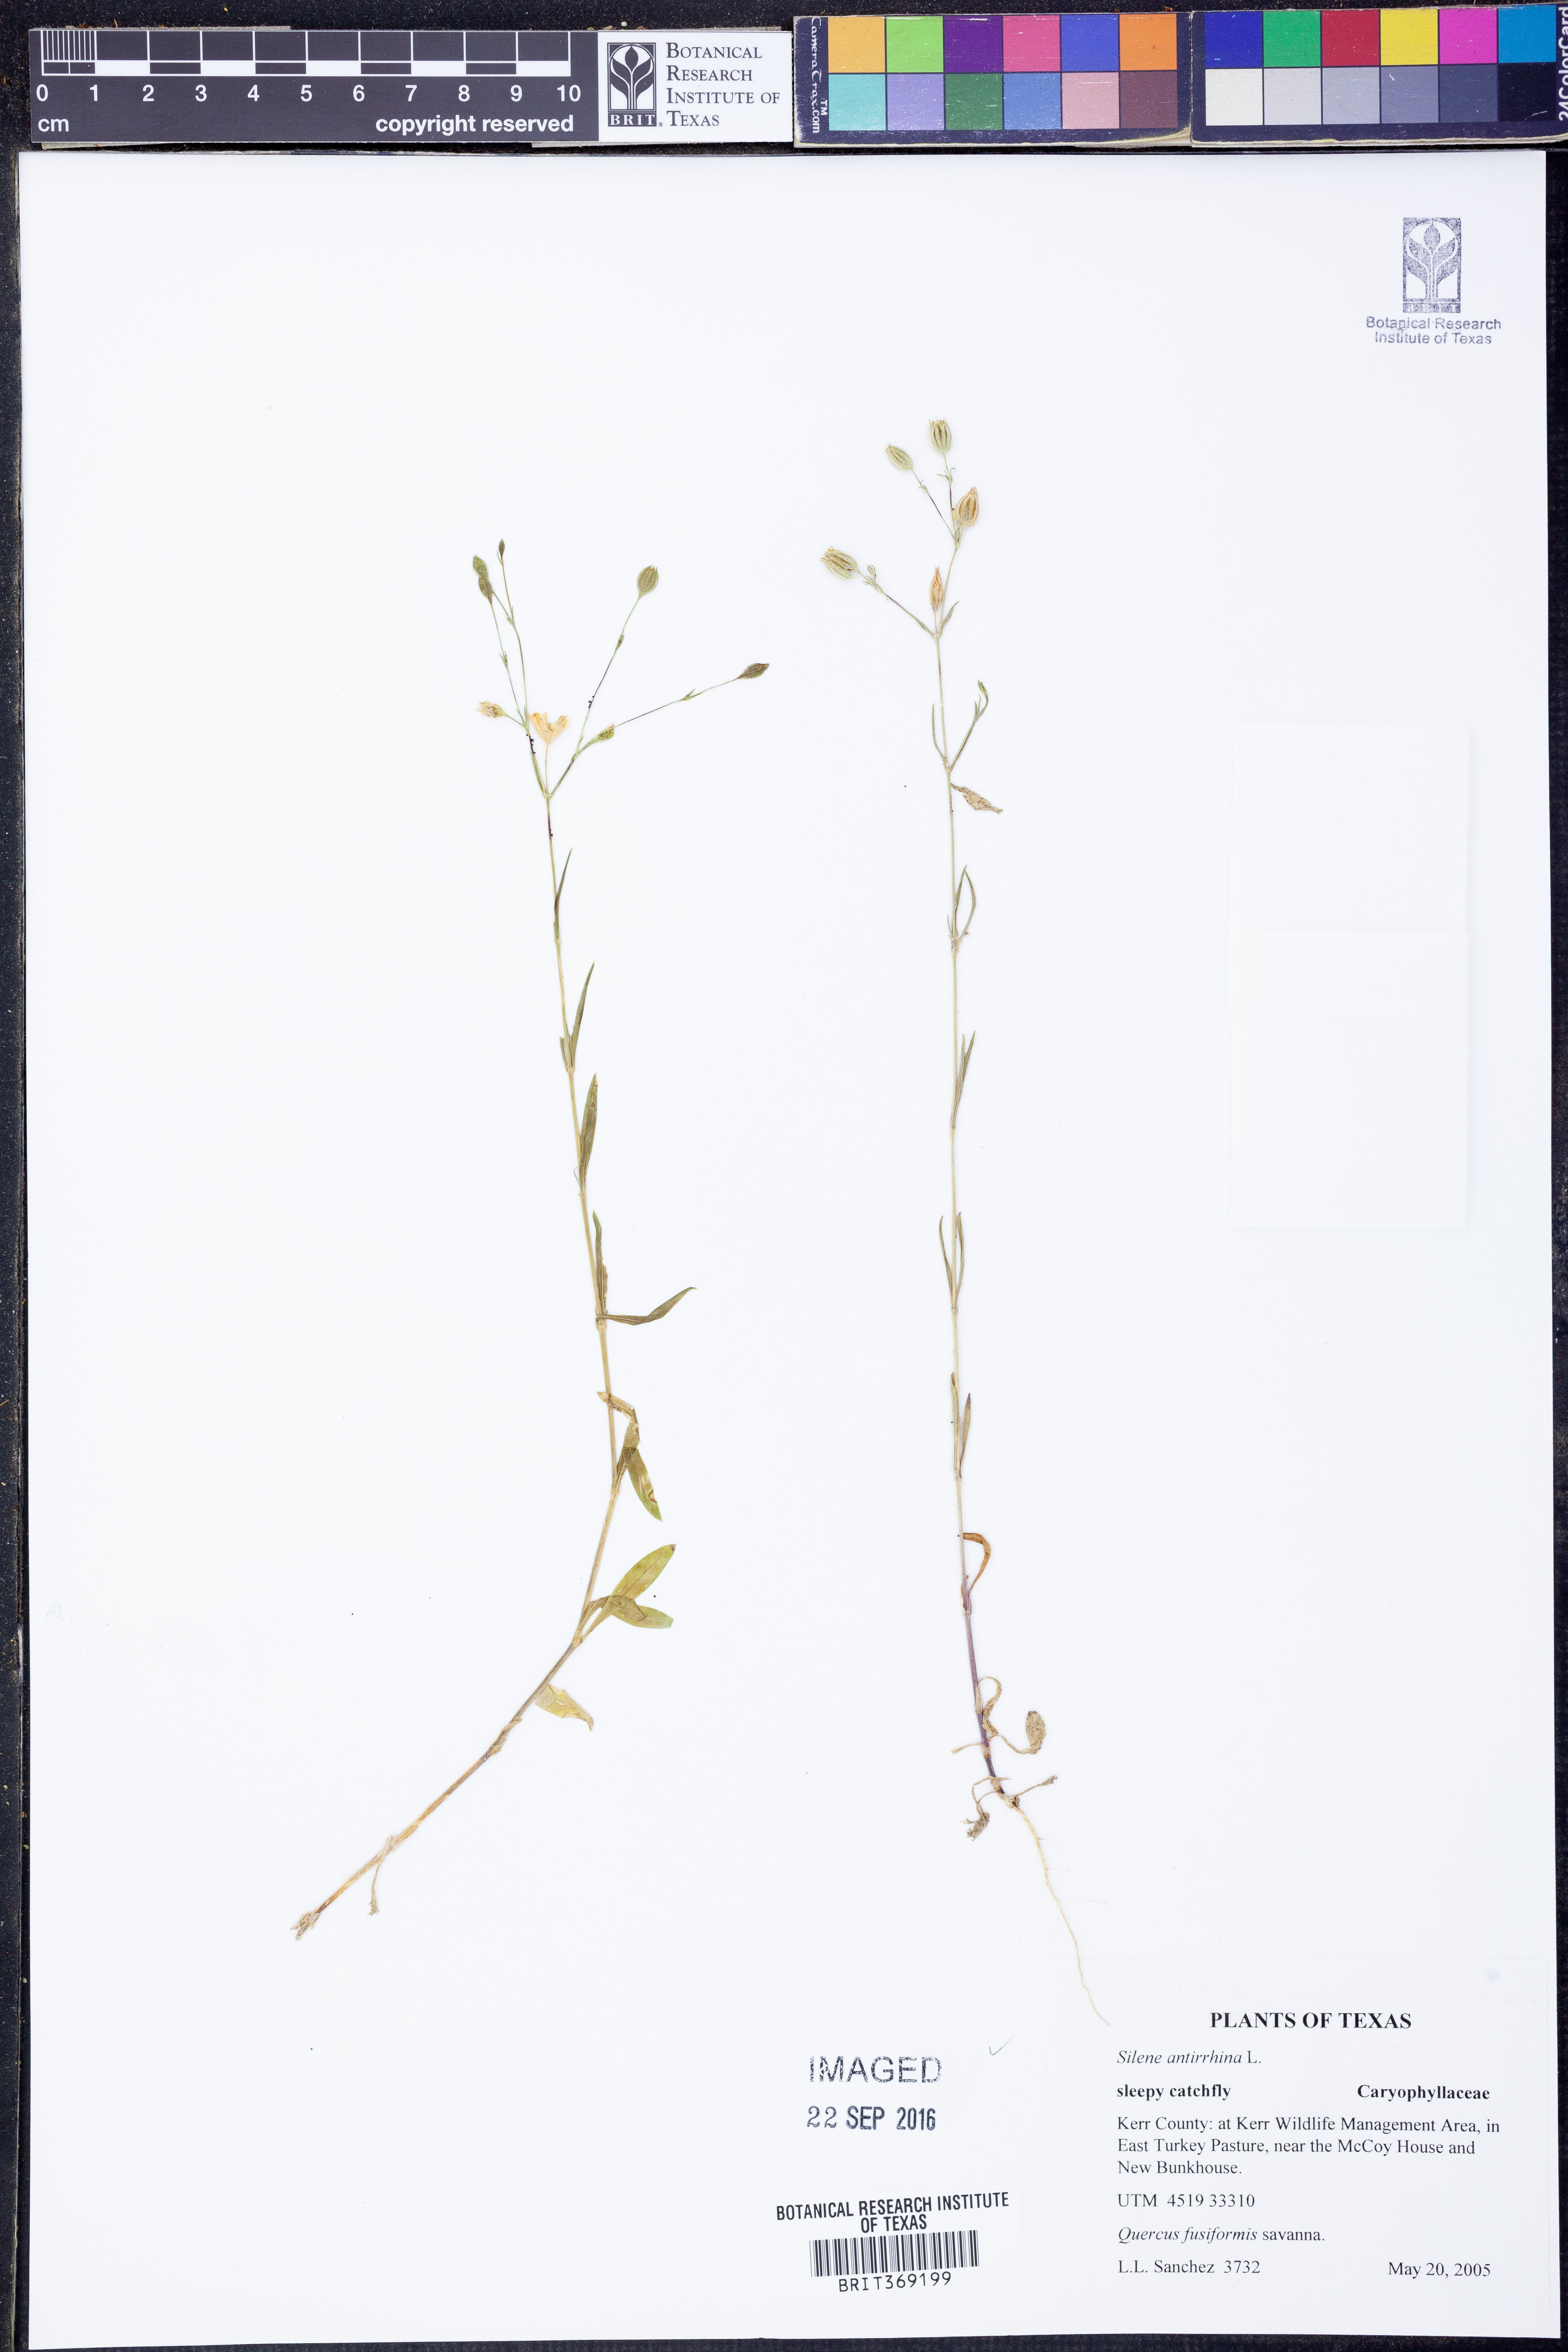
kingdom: Plantae
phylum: Tracheophyta
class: Magnoliopsida
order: Caryophyllales
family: Caryophyllaceae
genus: Silene
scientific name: Silene antirrhina
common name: Sleepy catchfly
